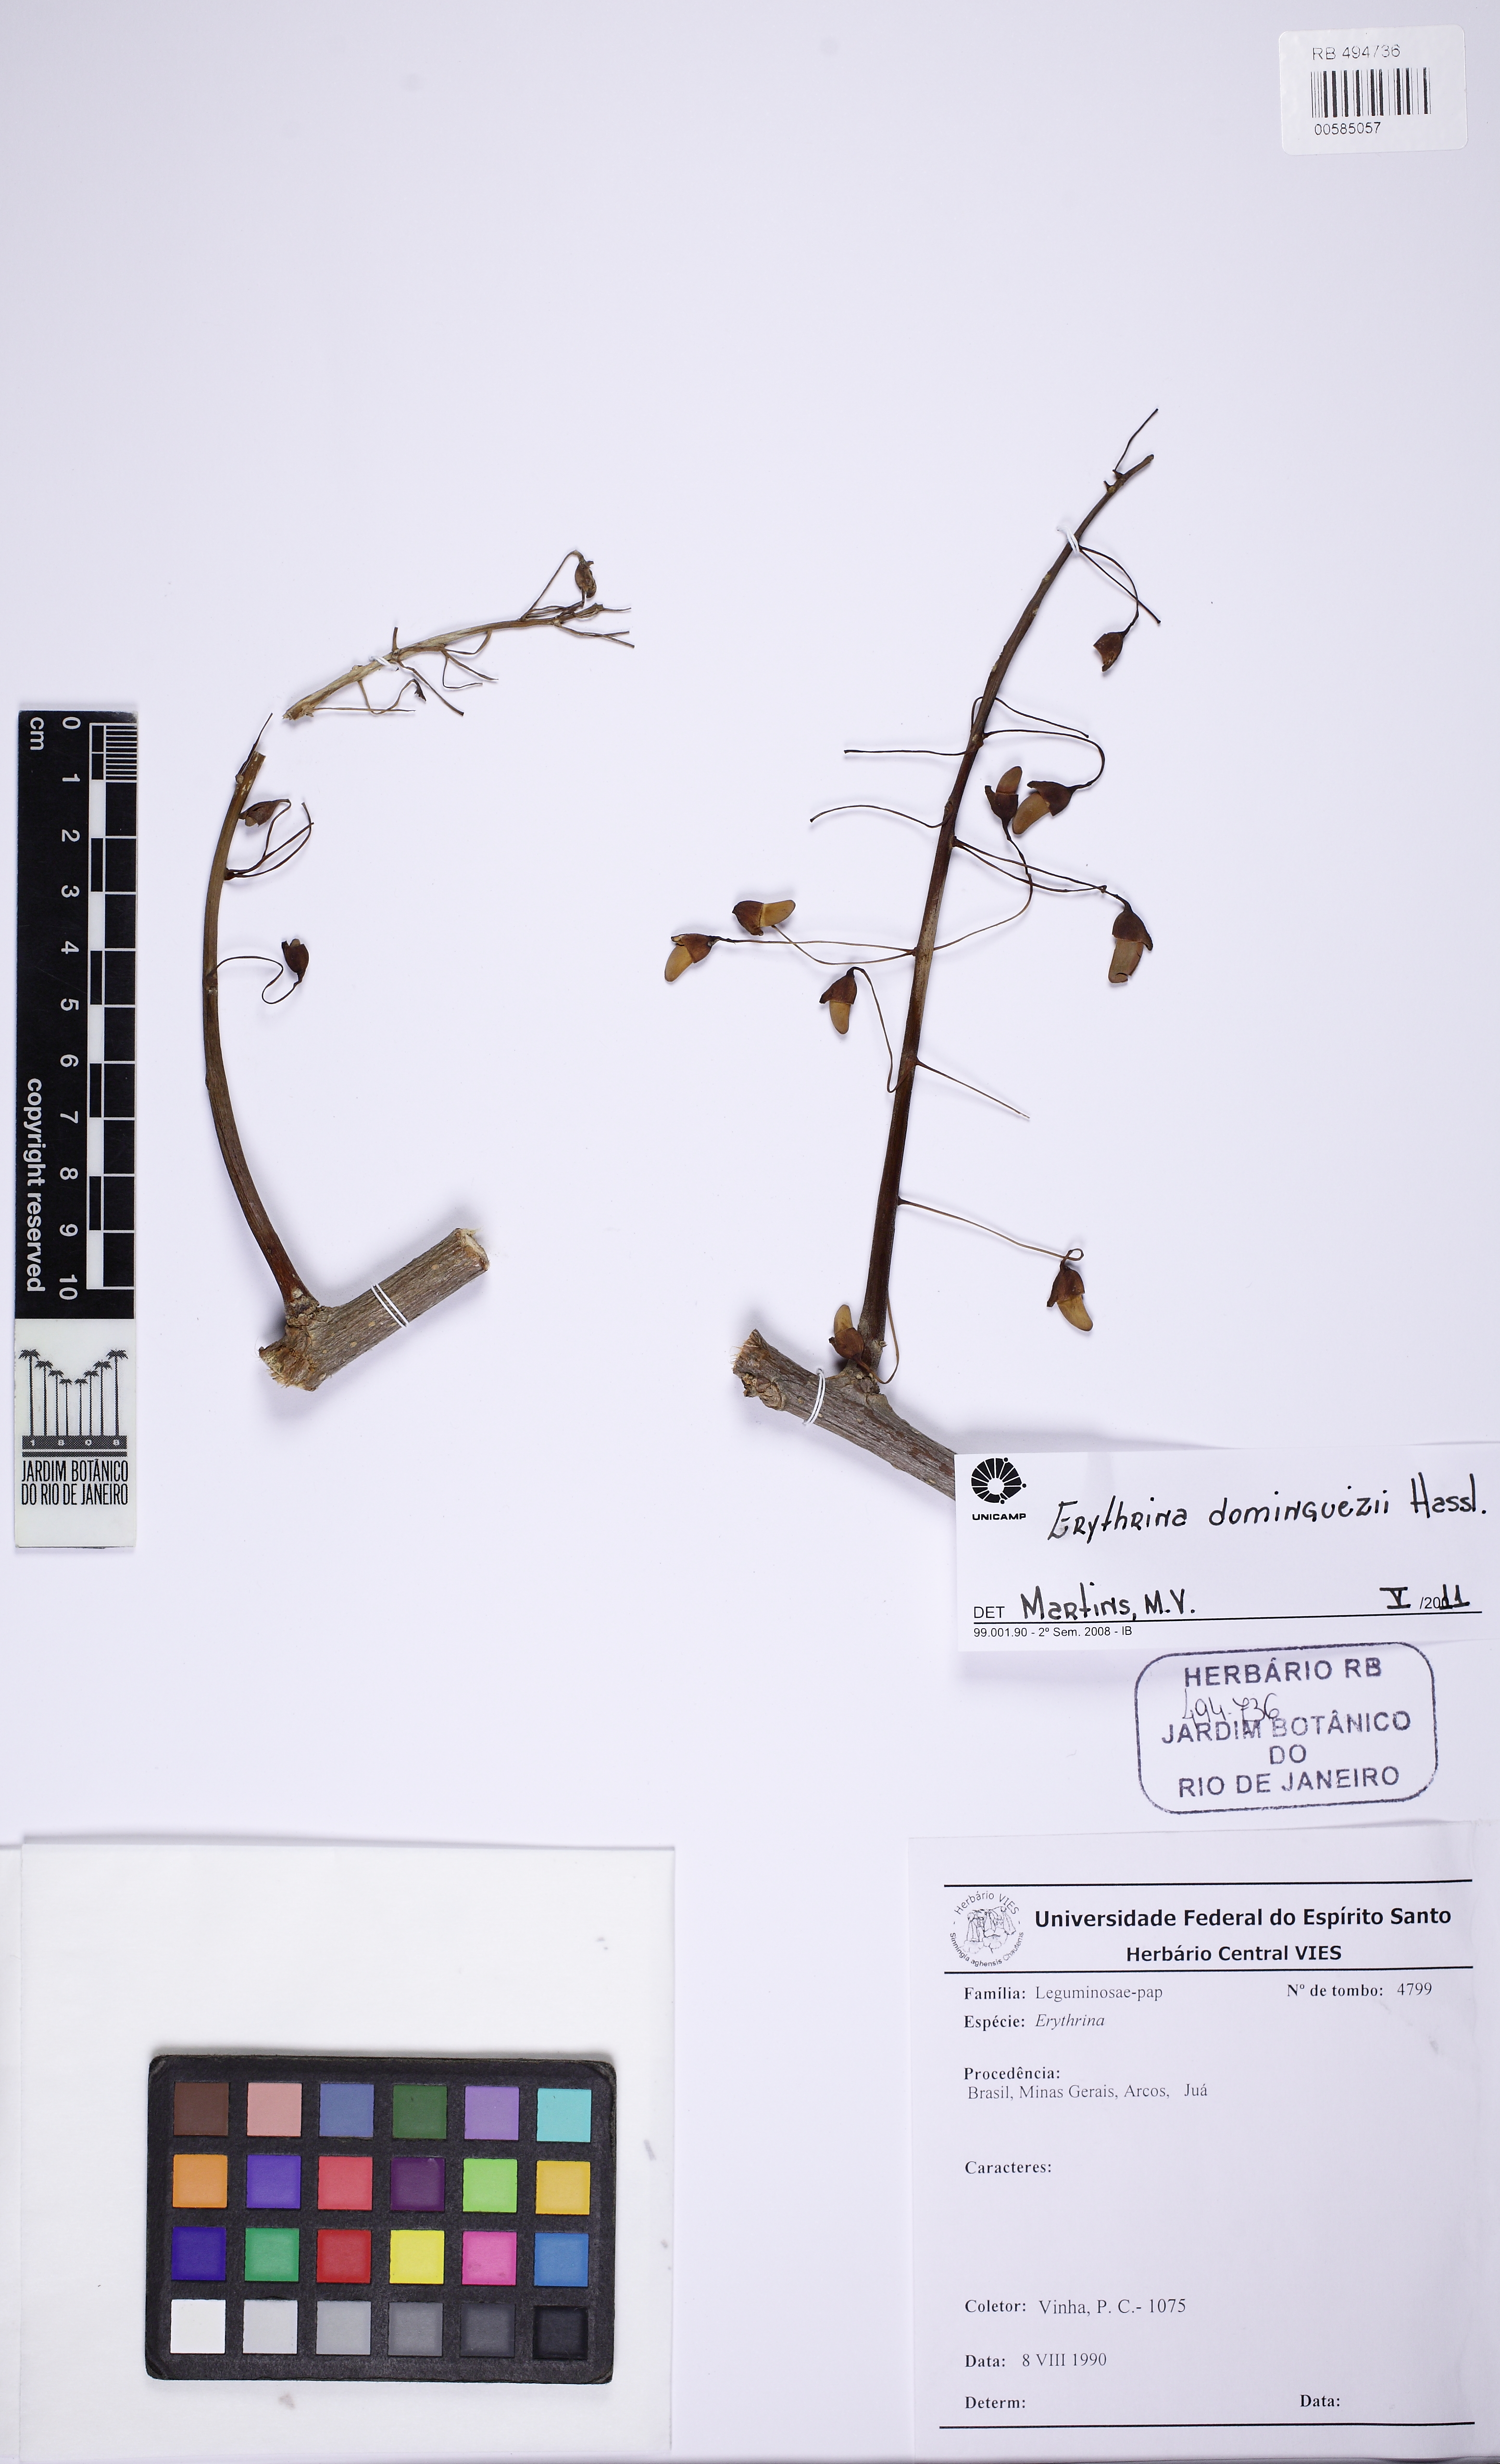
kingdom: Plantae
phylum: Tracheophyta
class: Magnoliopsida
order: Fabales
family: Fabaceae
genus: Erythrina
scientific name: Erythrina mulungu
